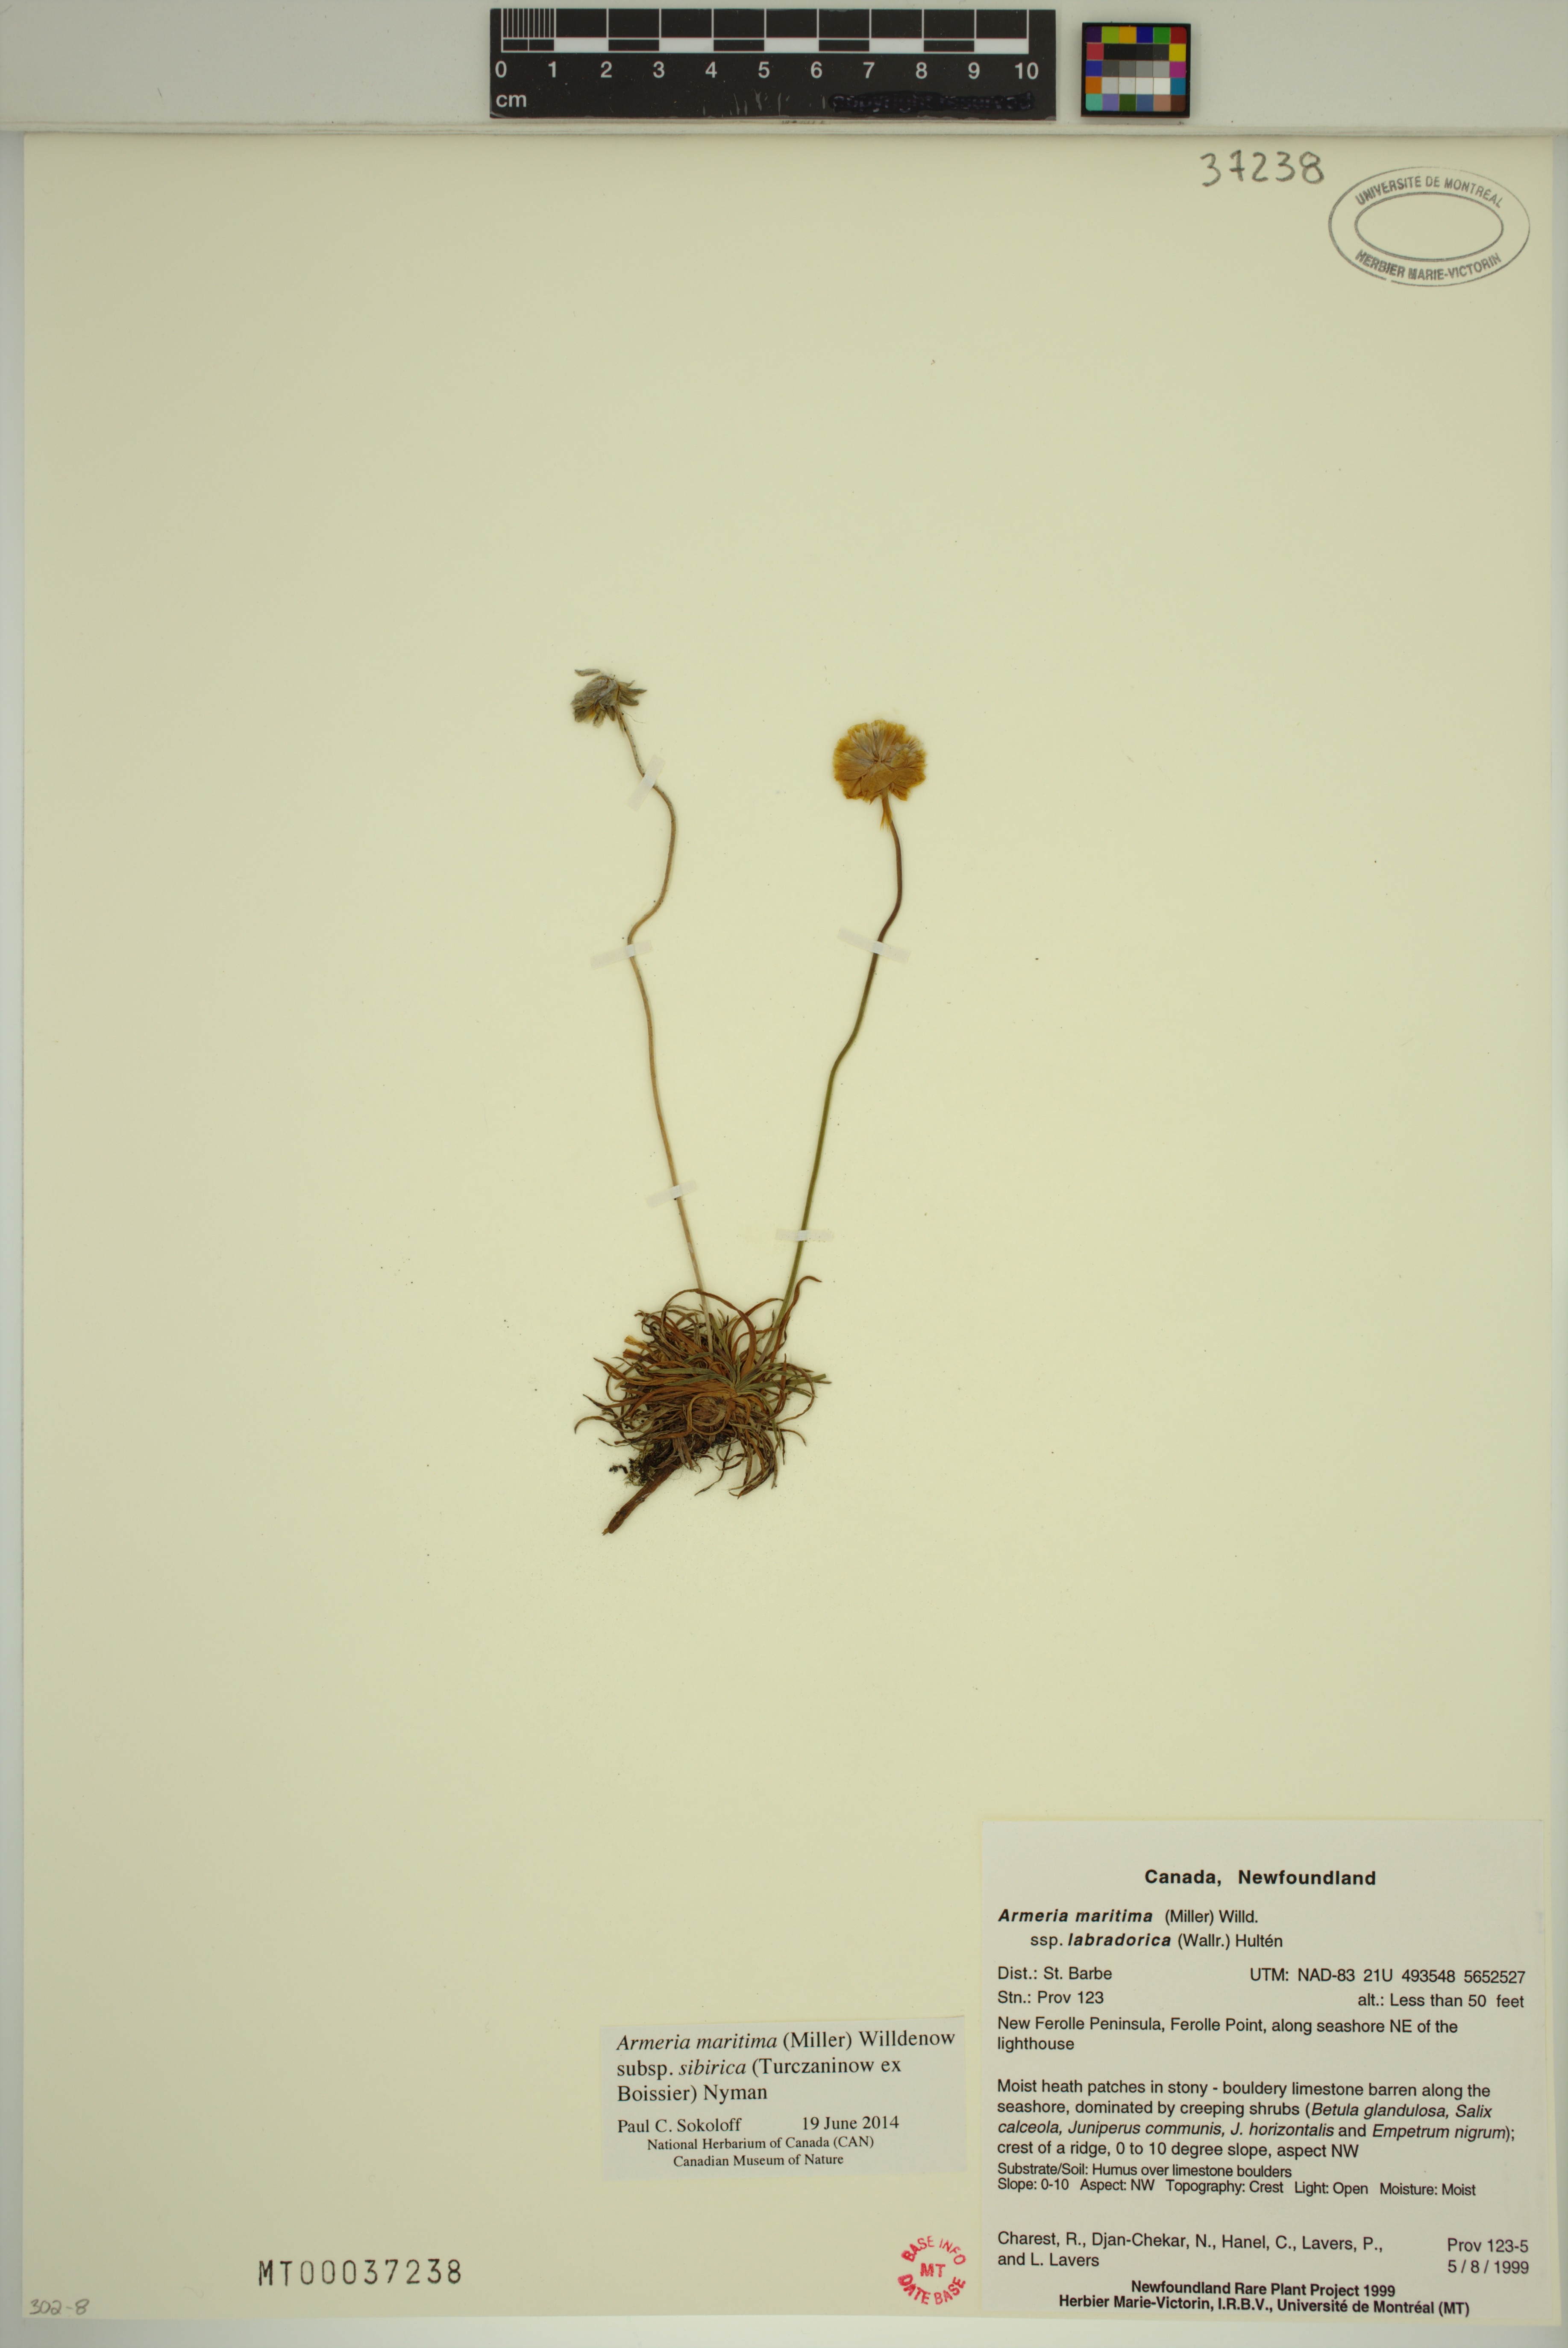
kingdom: Plantae
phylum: Tracheophyta
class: Magnoliopsida
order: Caryophyllales
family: Plumbaginaceae
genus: Armeria
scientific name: Armeria maritima
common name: Thrift
